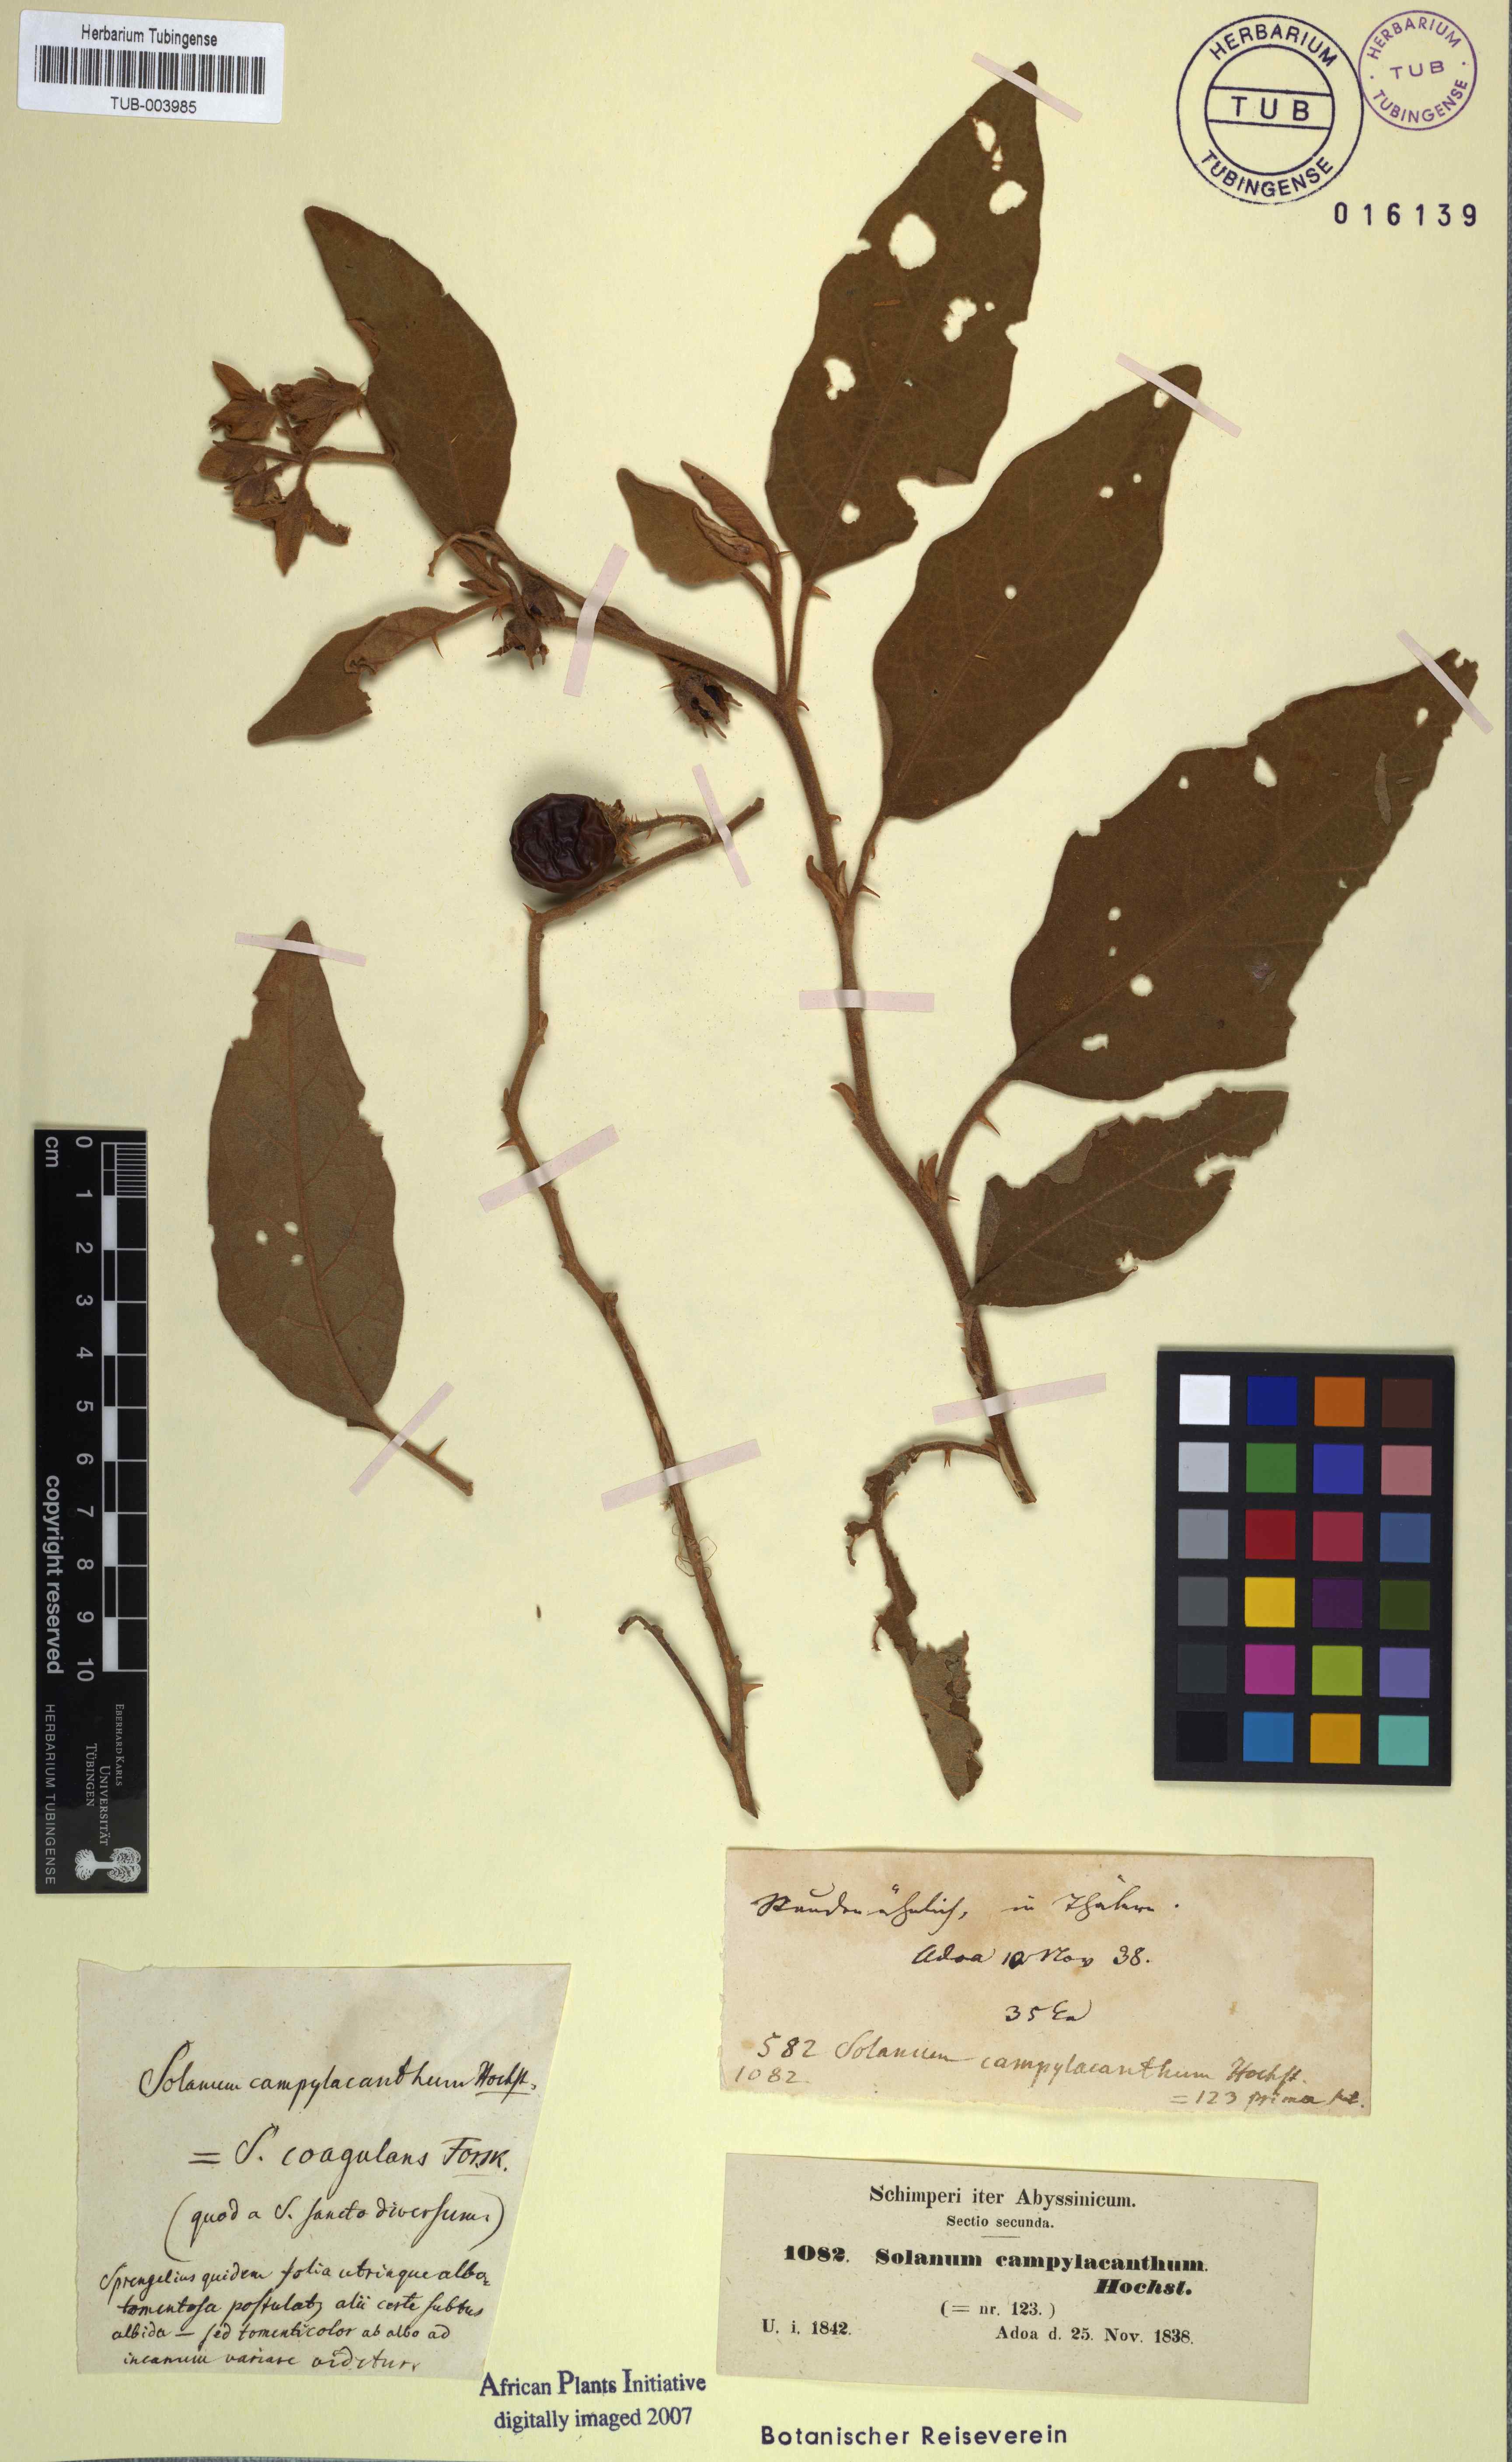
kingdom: Plantae
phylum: Tracheophyta
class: Magnoliopsida
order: Solanales
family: Solanaceae
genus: Solanum
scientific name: Solanum campylacanthum
